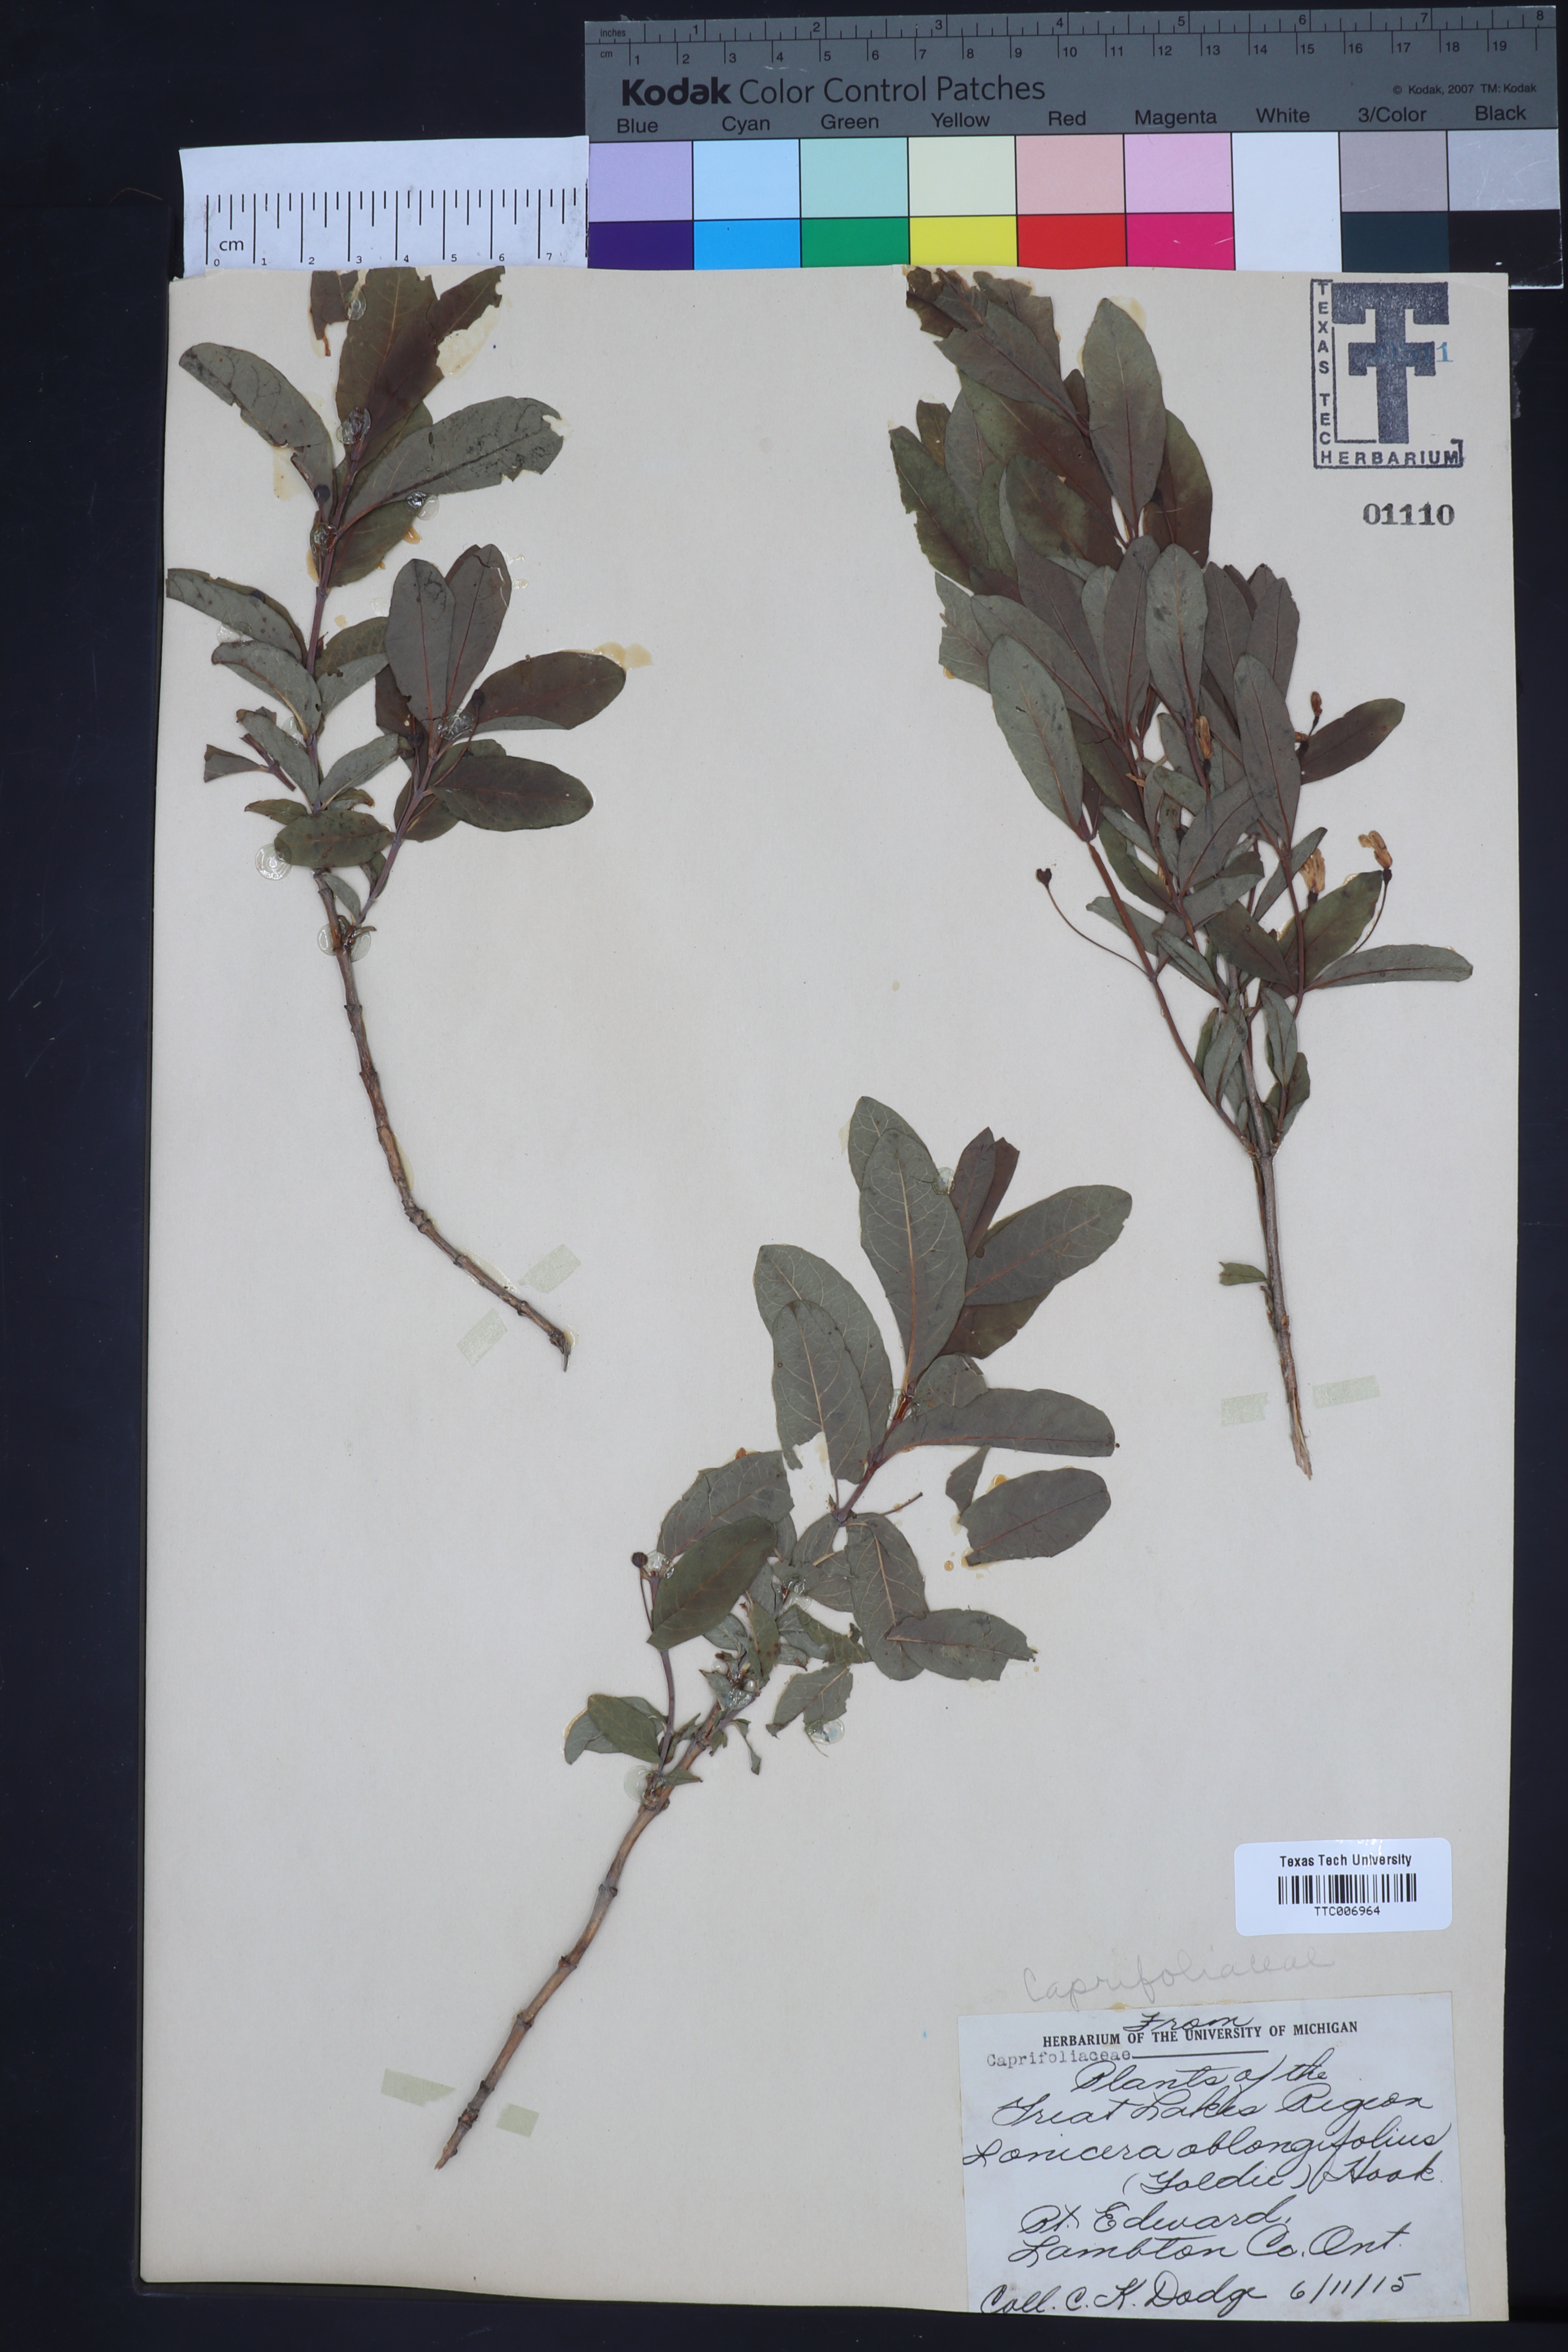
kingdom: Plantae
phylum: Tracheophyta
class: Magnoliopsida
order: Dipsacales
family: Caprifoliaceae
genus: Lonicera
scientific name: Lonicera oblongifolia
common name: Swamp fly honeysuckle
